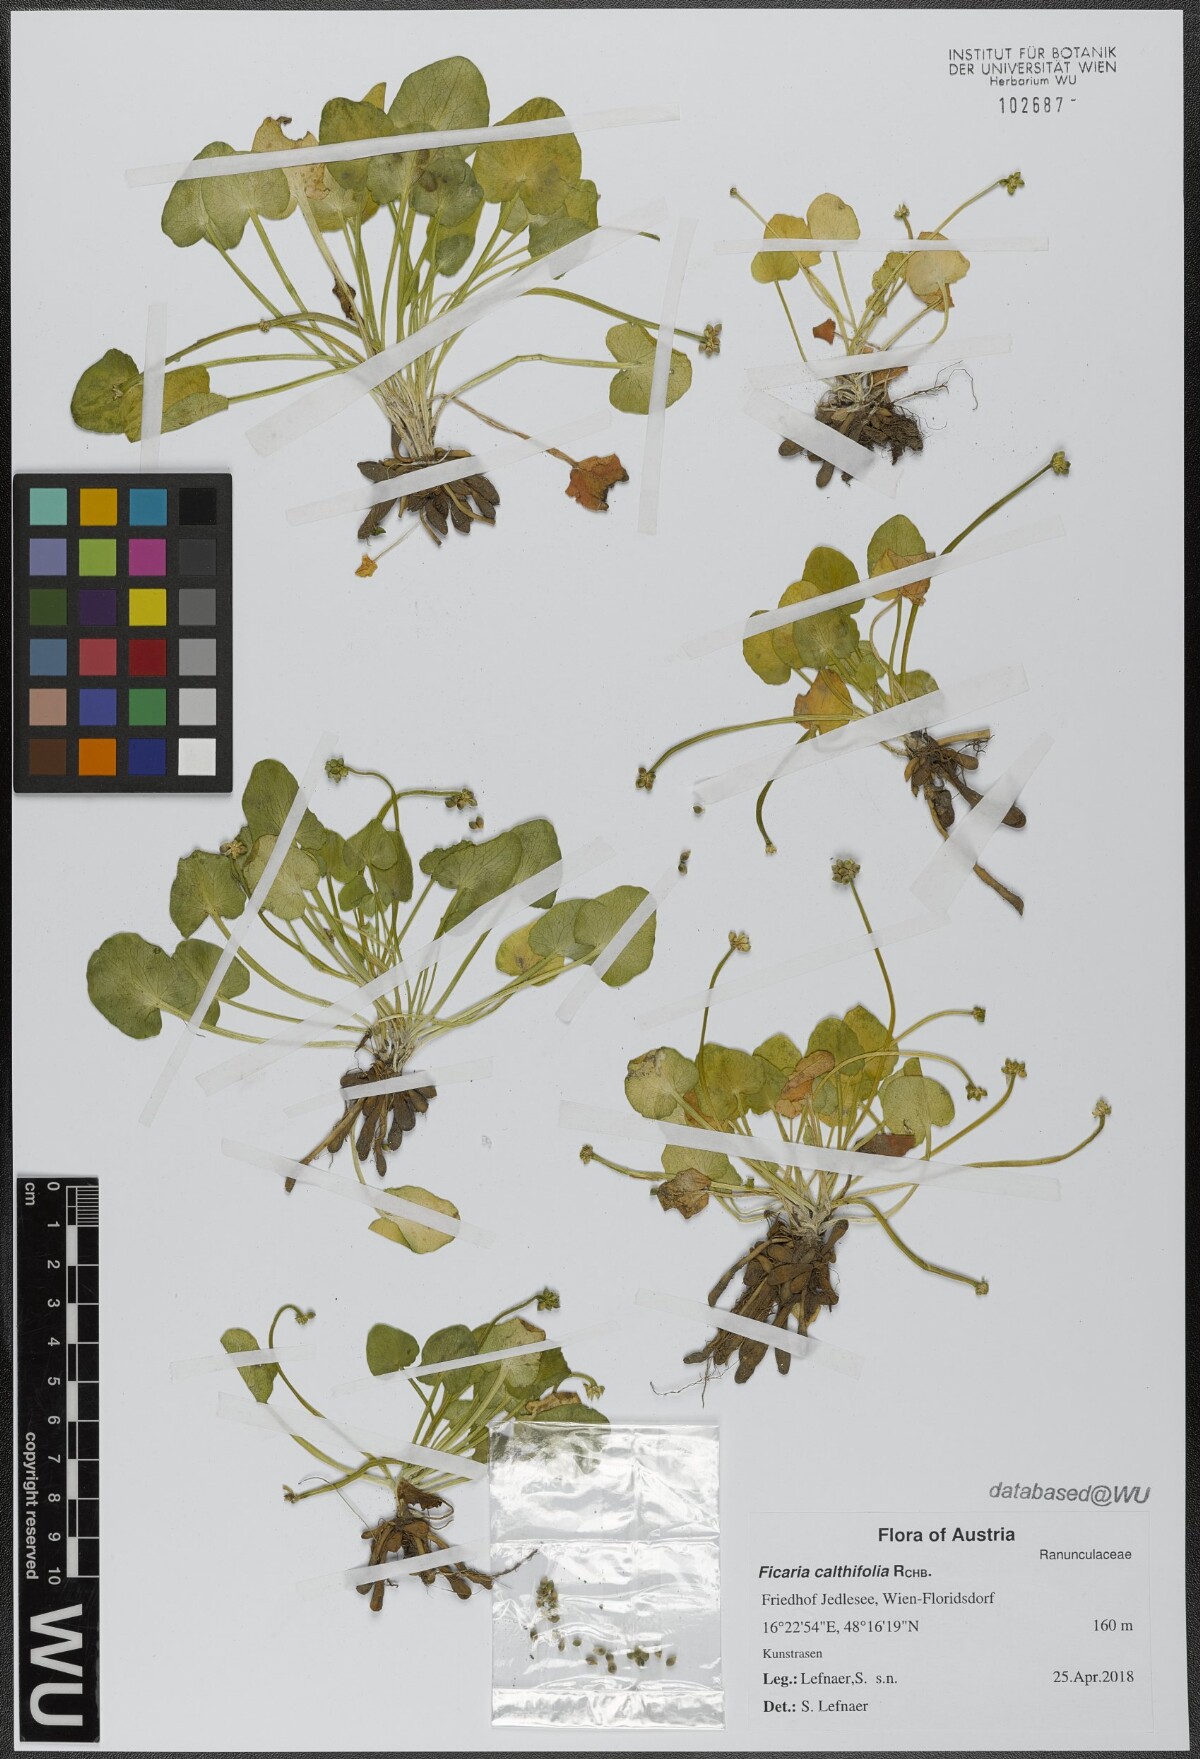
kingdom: Plantae
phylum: Tracheophyta
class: Magnoliopsida
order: Ranunculales
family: Ranunculaceae
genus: Ficaria
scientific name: Ficaria calthifolia
